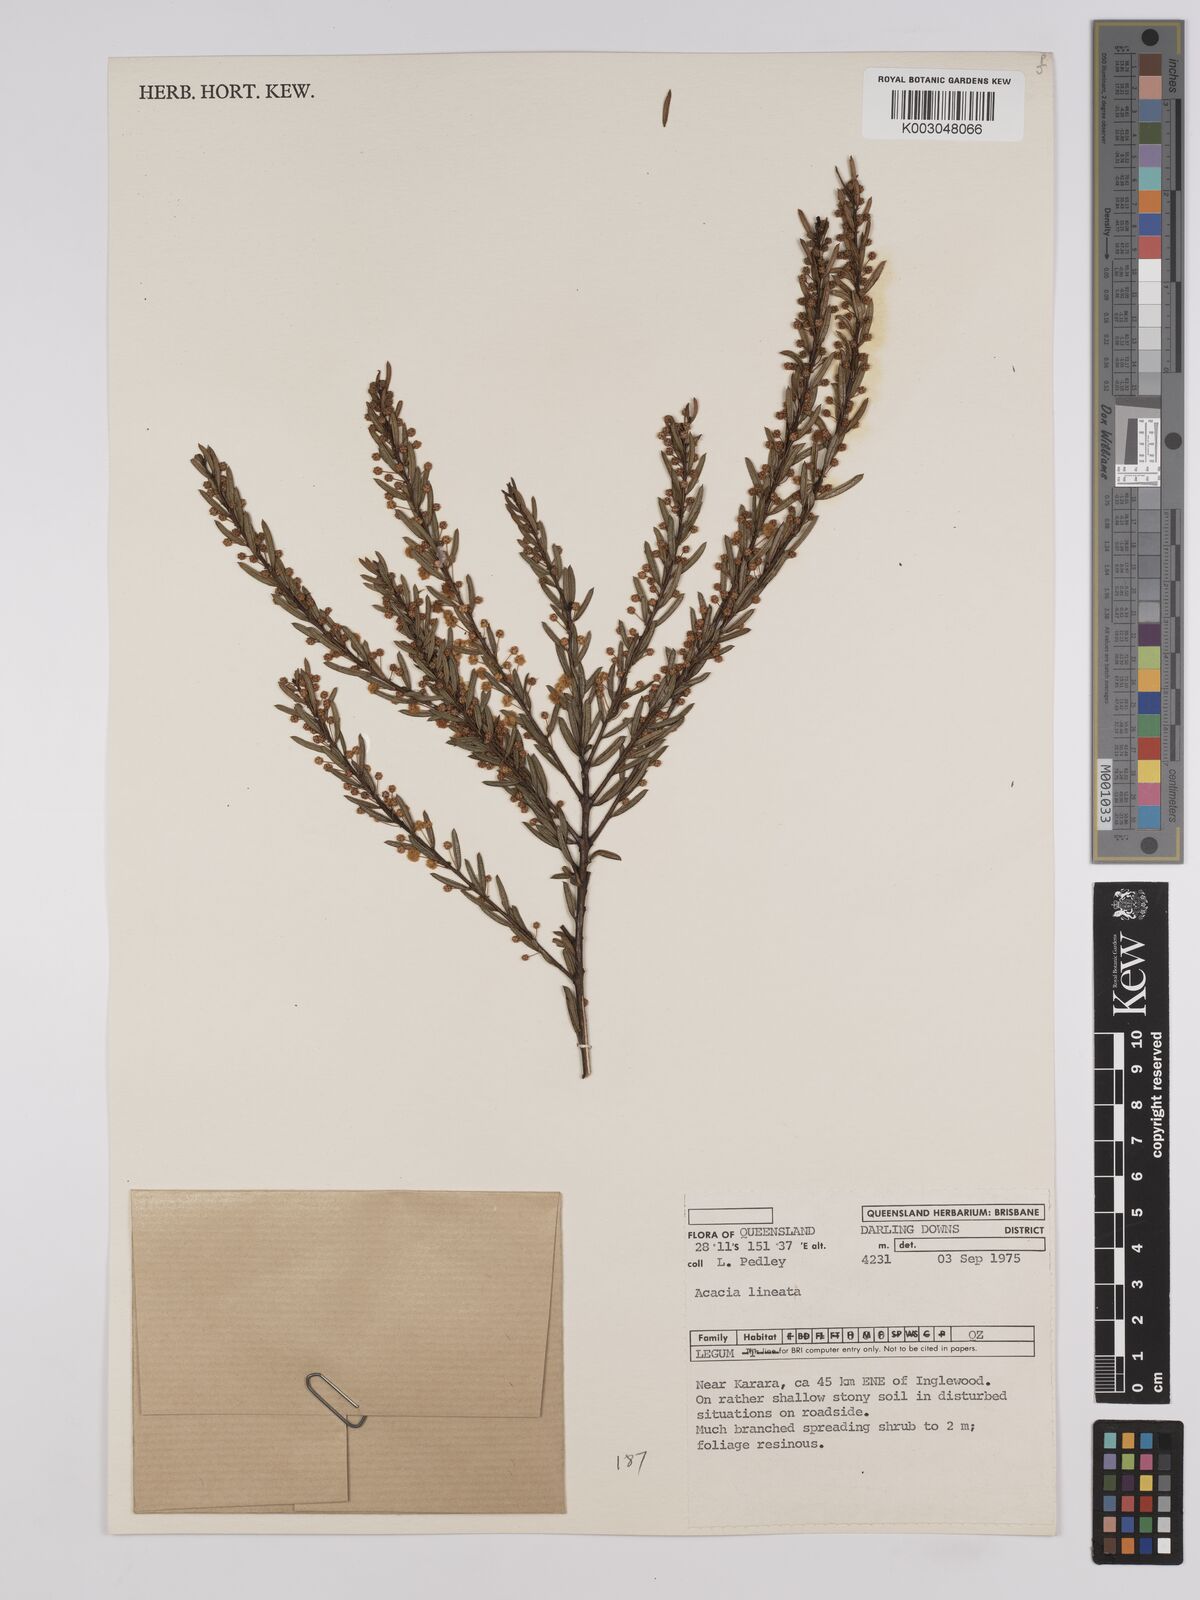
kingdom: Plantae
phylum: Tracheophyta
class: Magnoliopsida
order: Fabales
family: Fabaceae
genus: Acacia
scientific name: Acacia lineata
